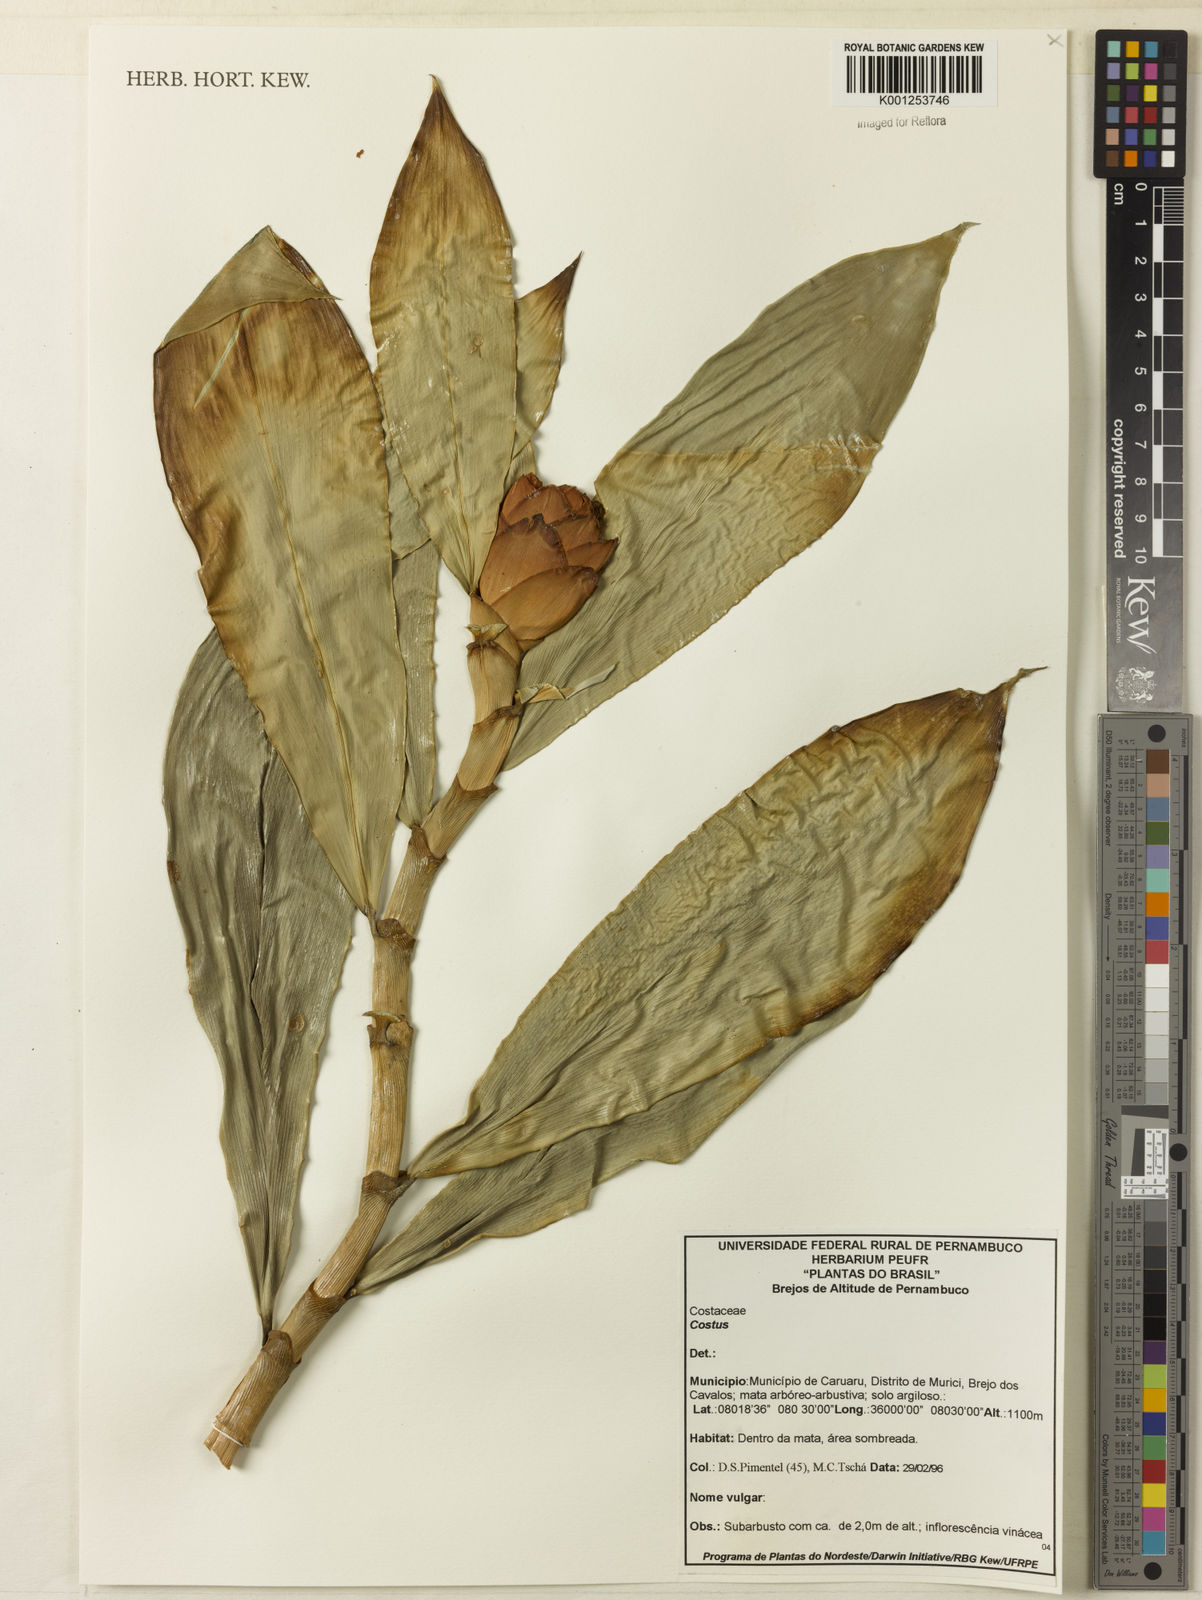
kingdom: Plantae
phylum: Tracheophyta
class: Liliopsida
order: Zingiberales
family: Costaceae
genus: Costus
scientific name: Costus
